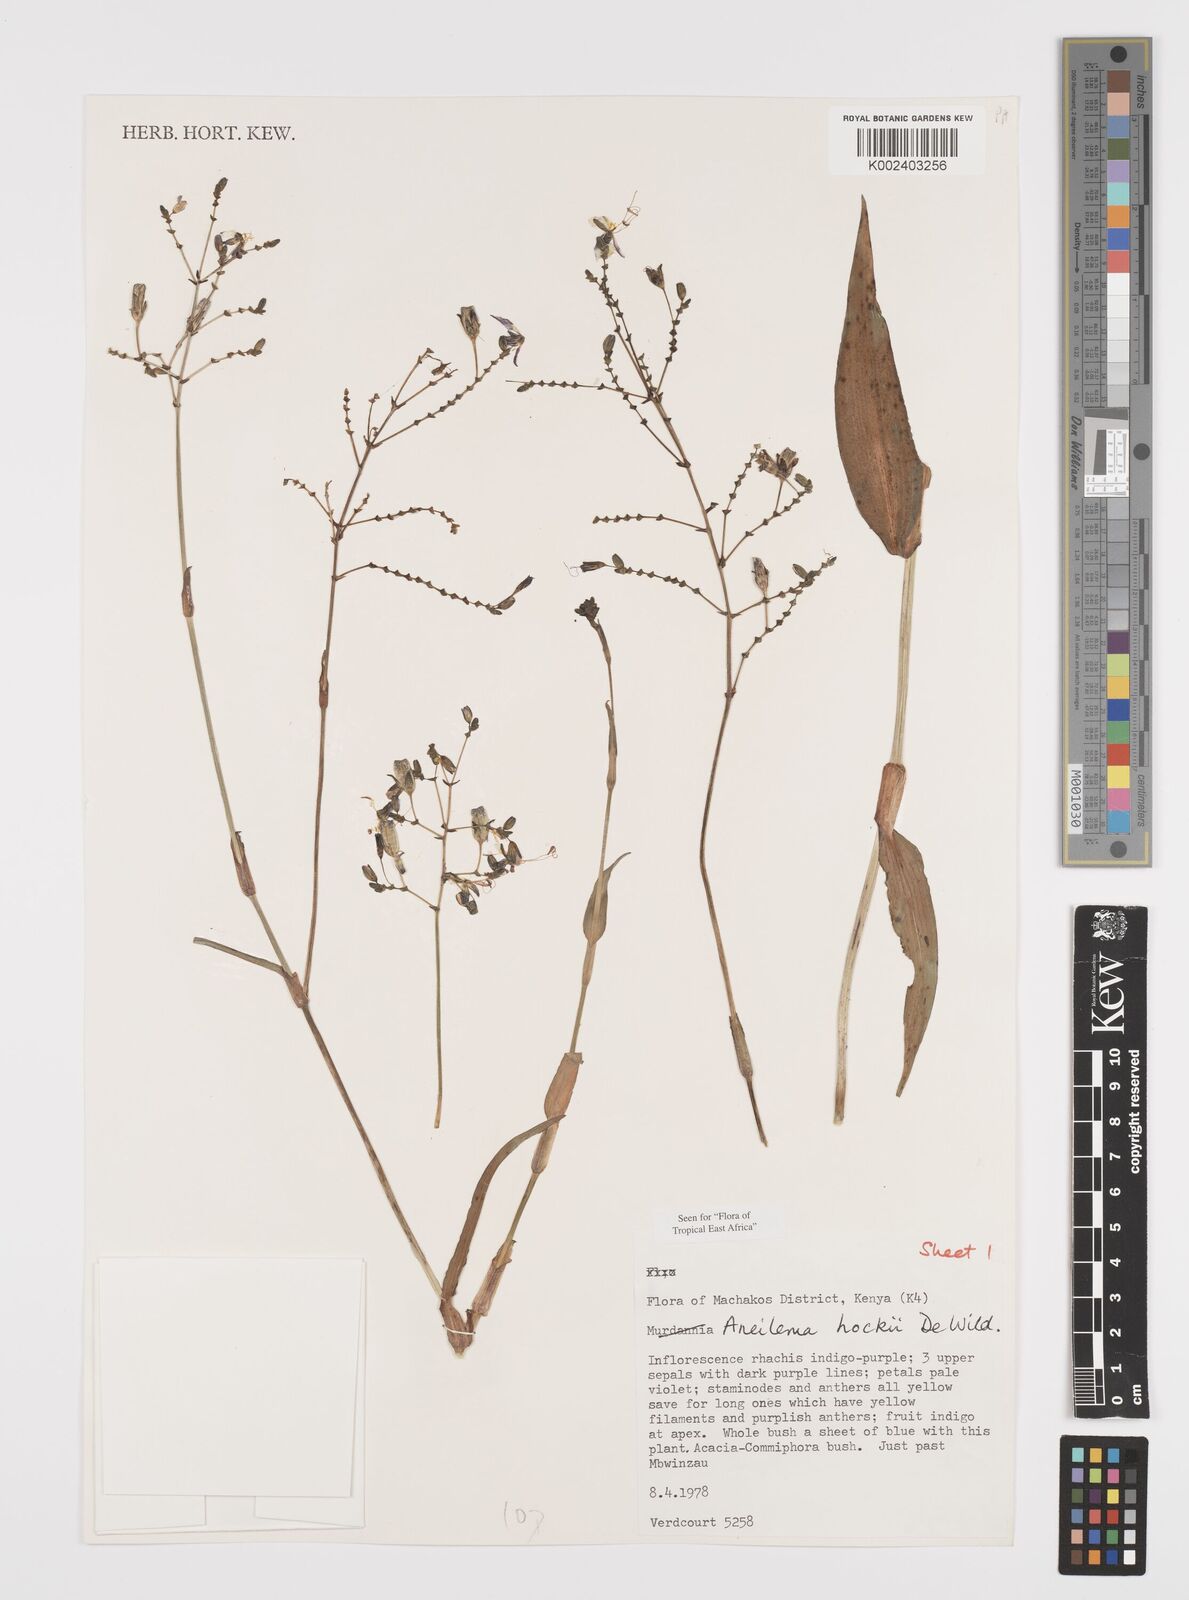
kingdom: Plantae
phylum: Tracheophyta
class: Liliopsida
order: Commelinales
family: Commelinaceae
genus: Aneilema
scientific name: Aneilema hockii
